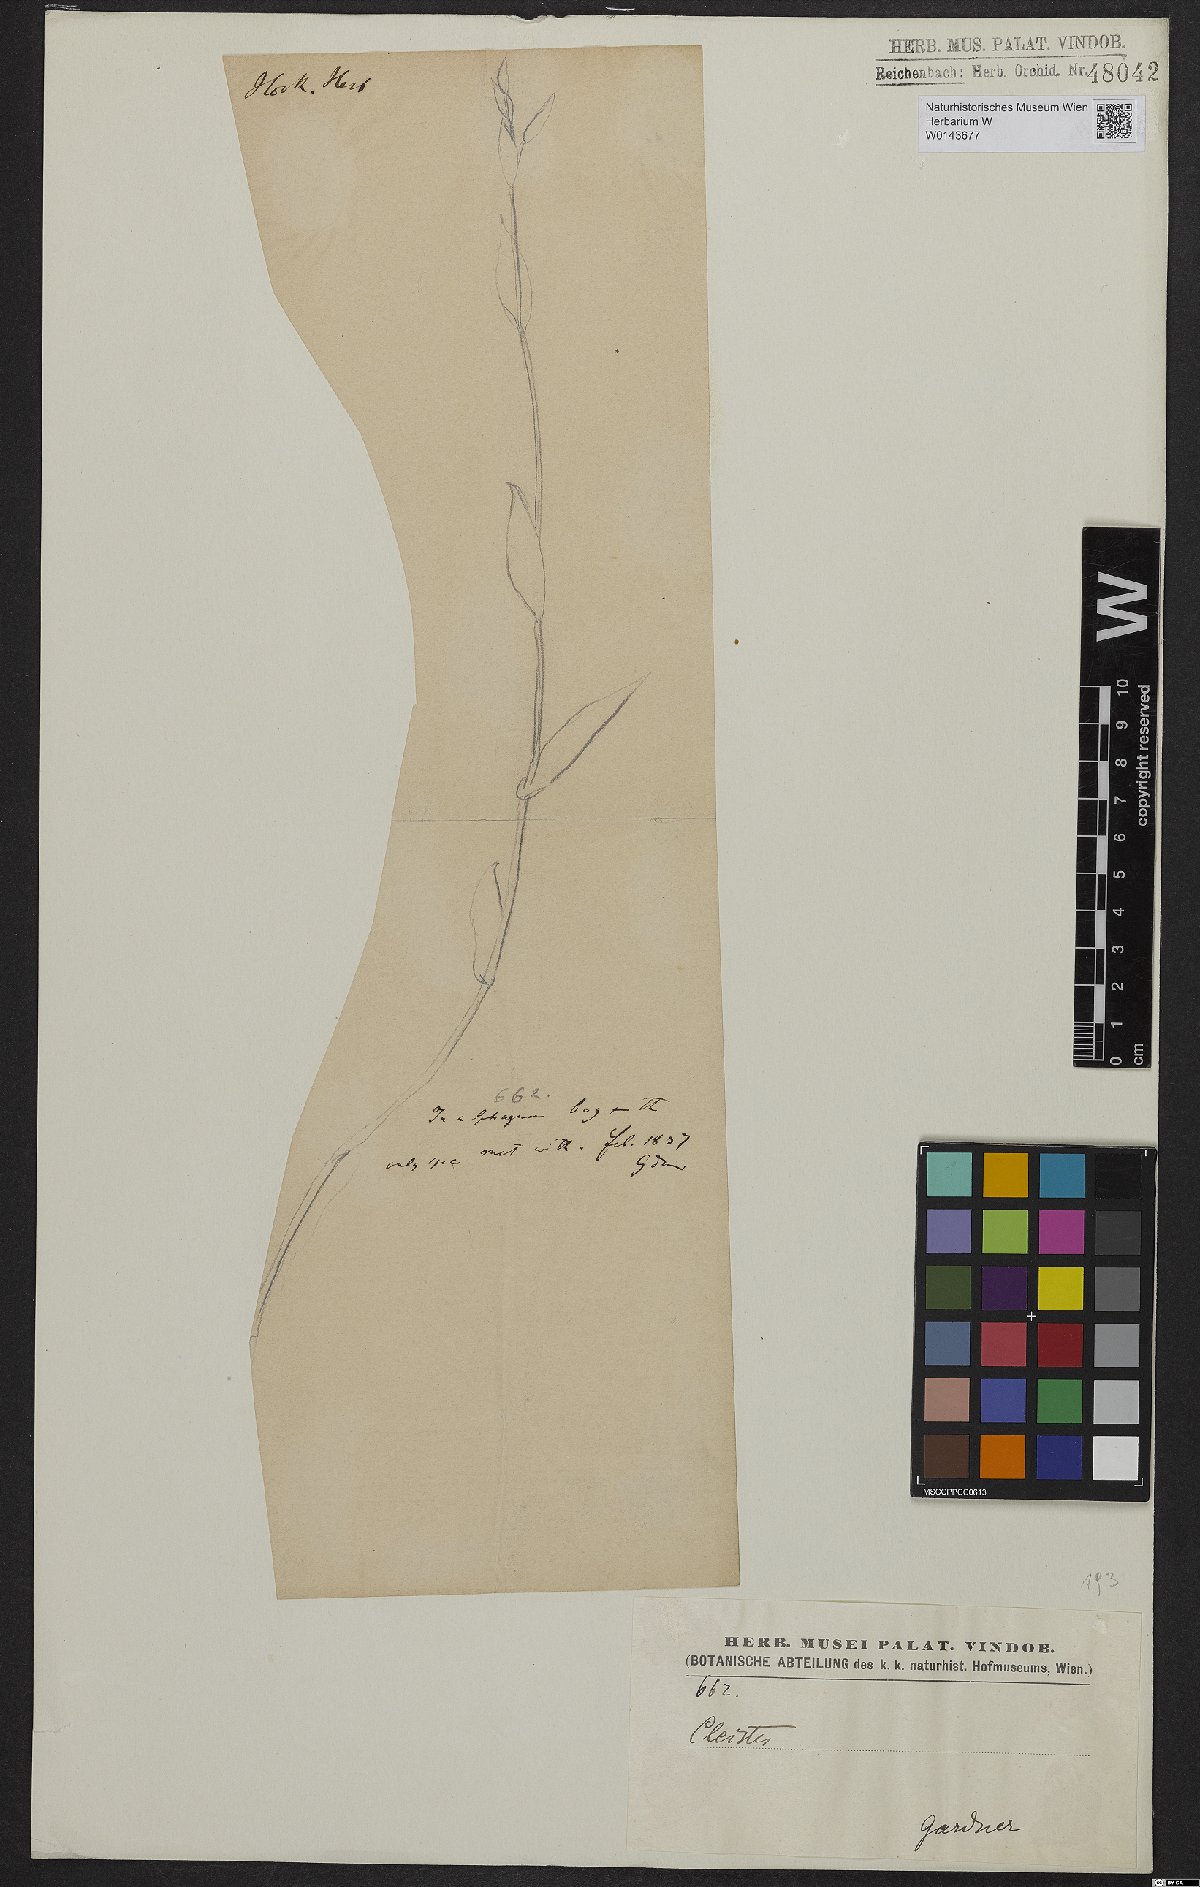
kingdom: Plantae
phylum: Tracheophyta
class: Liliopsida
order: Asparagales
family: Orchidaceae
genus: Cleistes
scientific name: Cleistes
